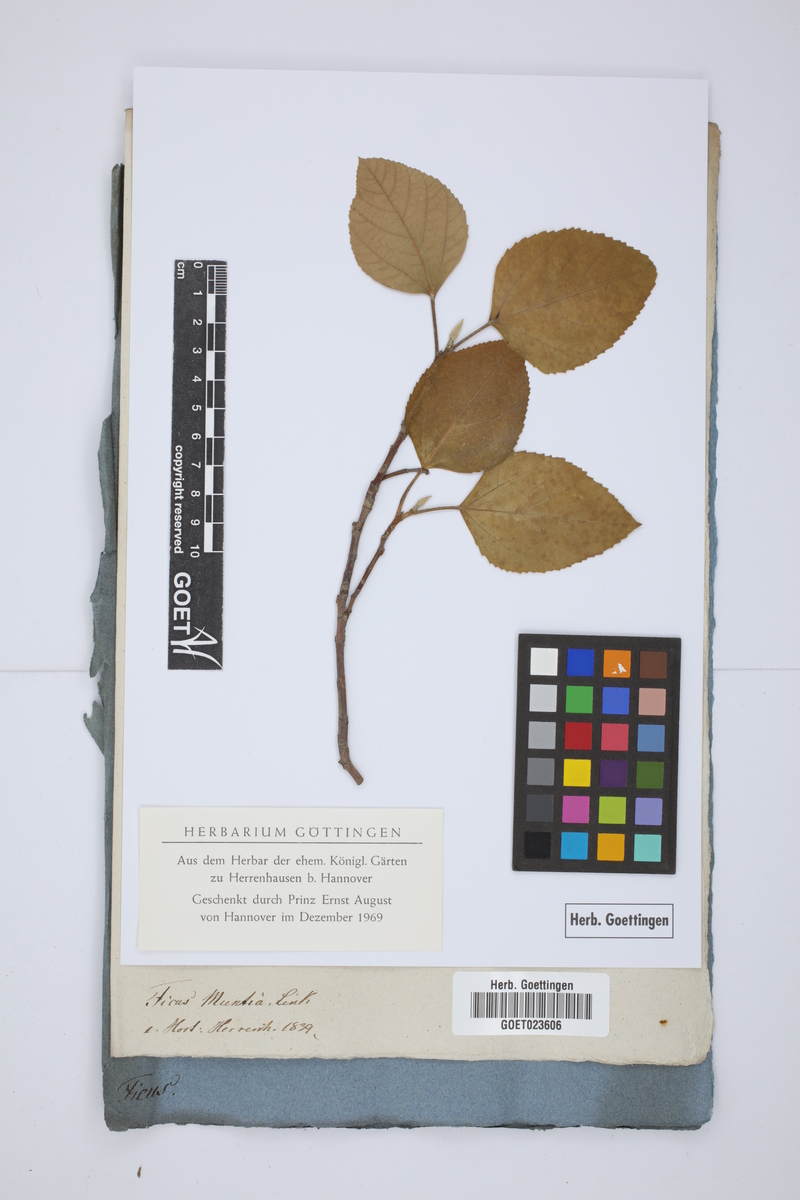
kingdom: Plantae
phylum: Tracheophyta
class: Magnoliopsida
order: Rosales
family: Moraceae
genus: Ficus
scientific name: Ficus coronata
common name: Creek sandpaper fig
